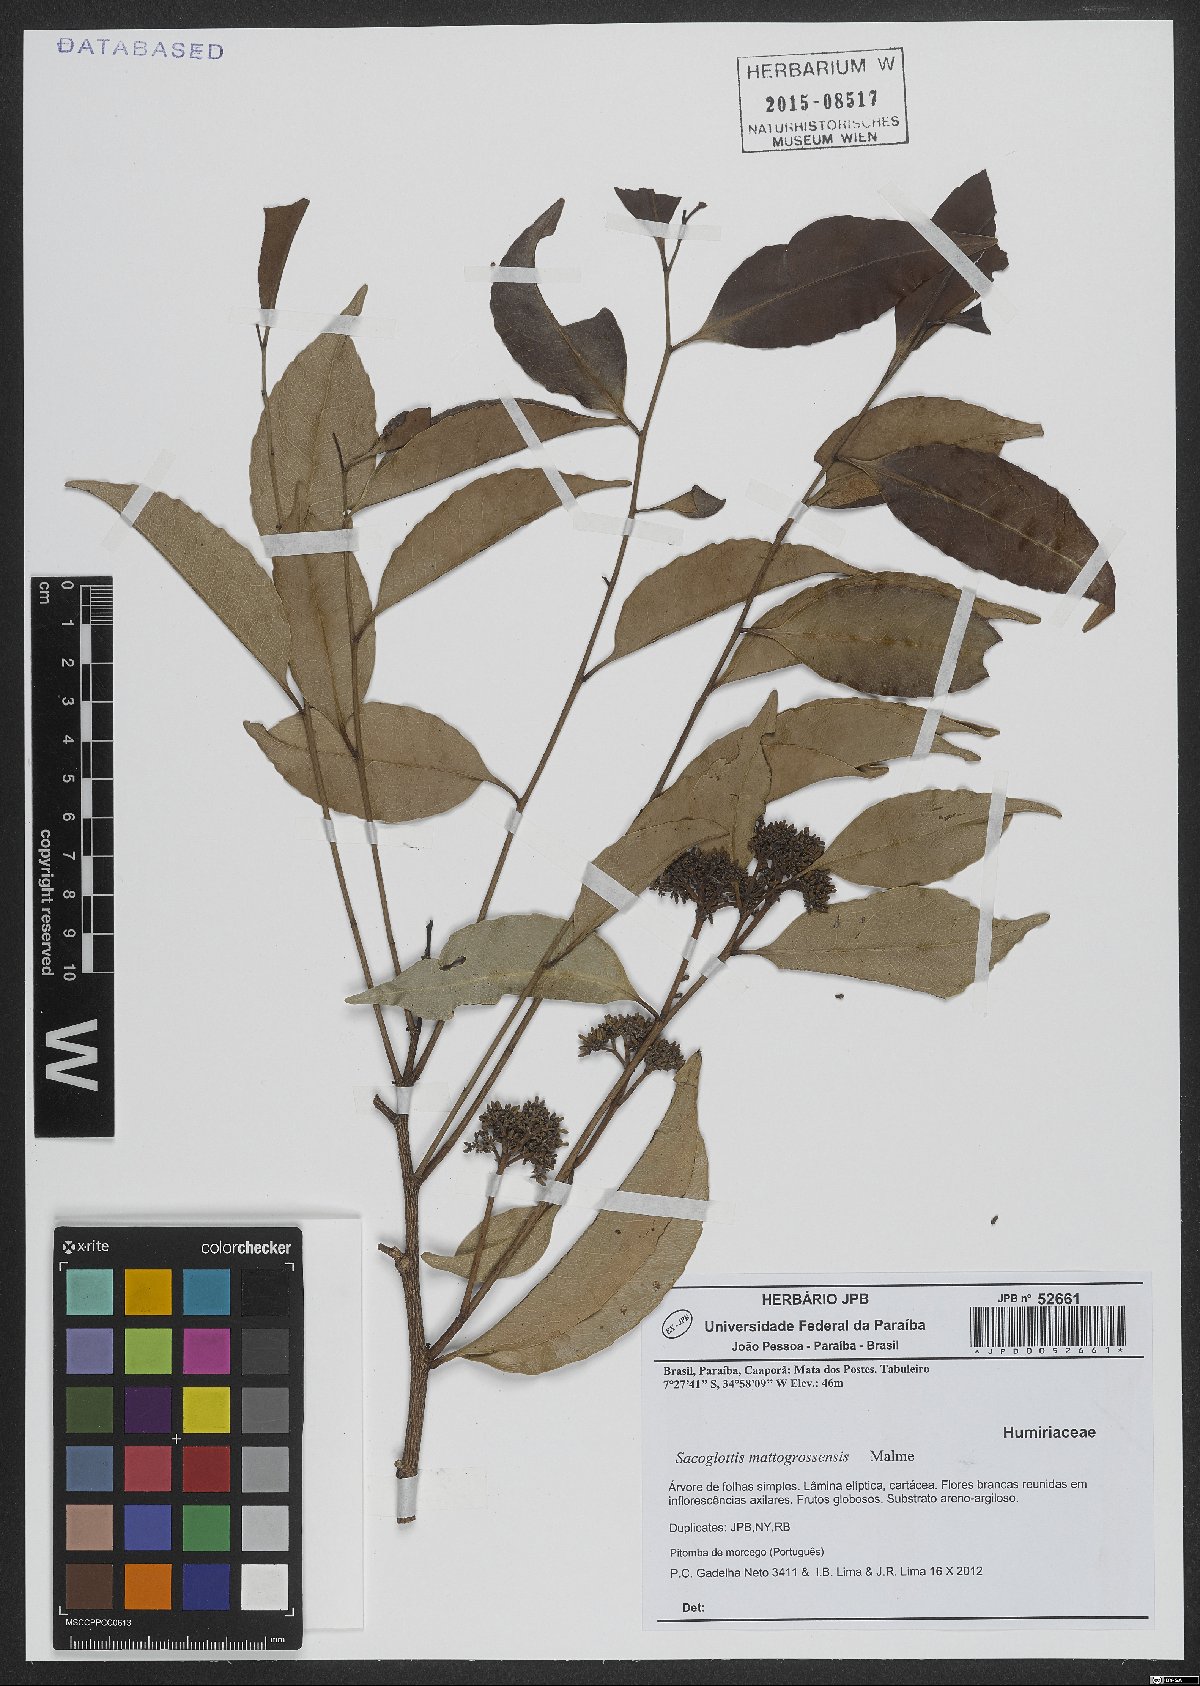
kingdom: Plantae
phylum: Tracheophyta
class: Magnoliopsida
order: Malpighiales
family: Humiriaceae
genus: Sacoglottis
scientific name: Sacoglottis mattogrossensis
